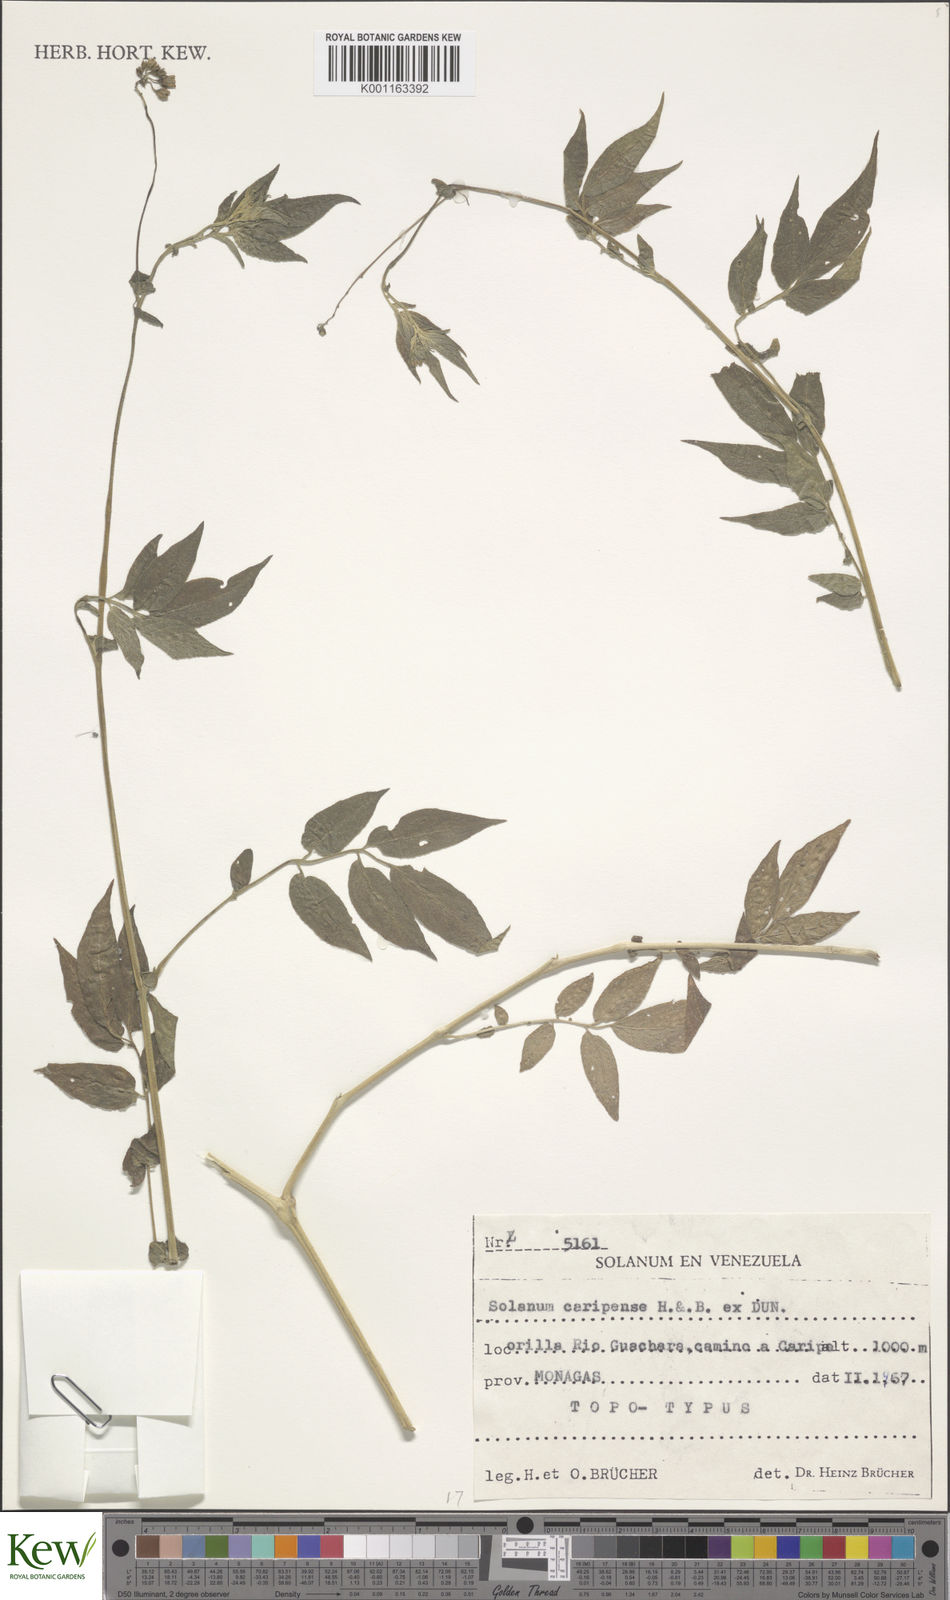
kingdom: Plantae
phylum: Tracheophyta
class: Magnoliopsida
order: Solanales
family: Solanaceae
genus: Solanum
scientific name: Solanum caripense
